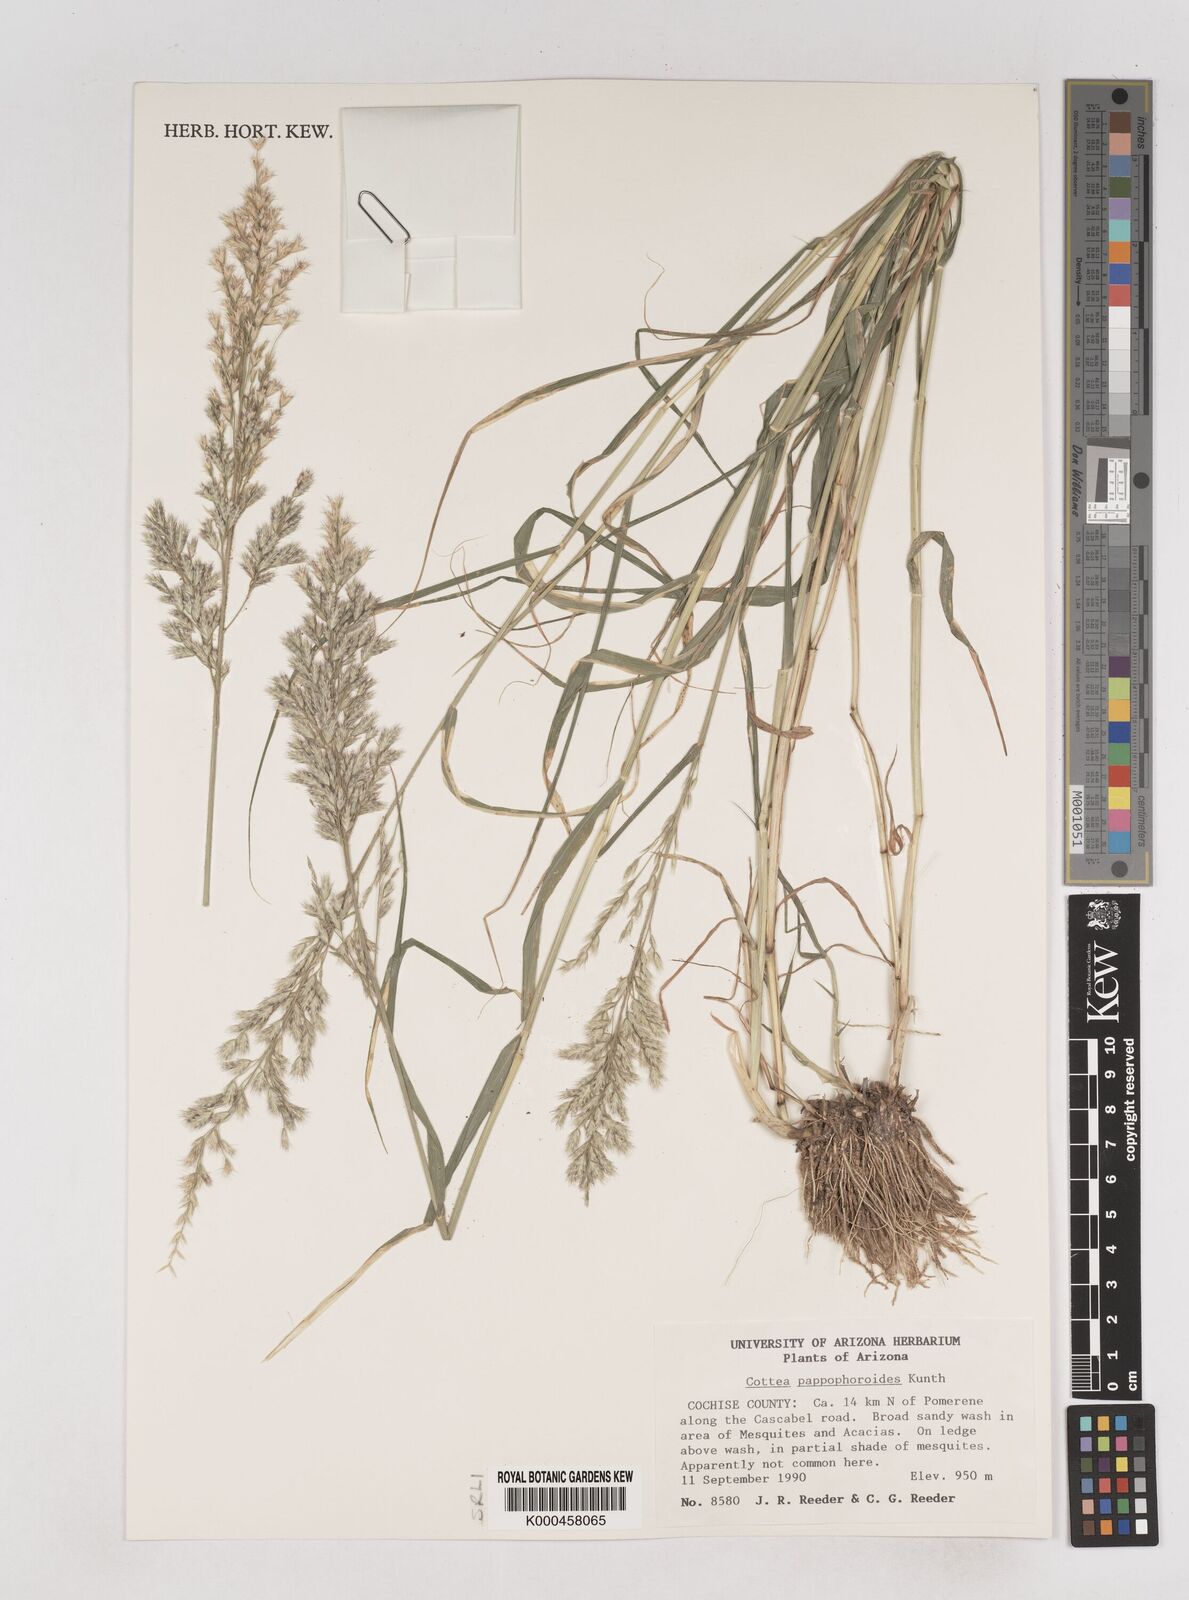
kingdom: Plantae
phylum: Tracheophyta
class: Liliopsida
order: Poales
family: Poaceae
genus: Cottea
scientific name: Cottea
